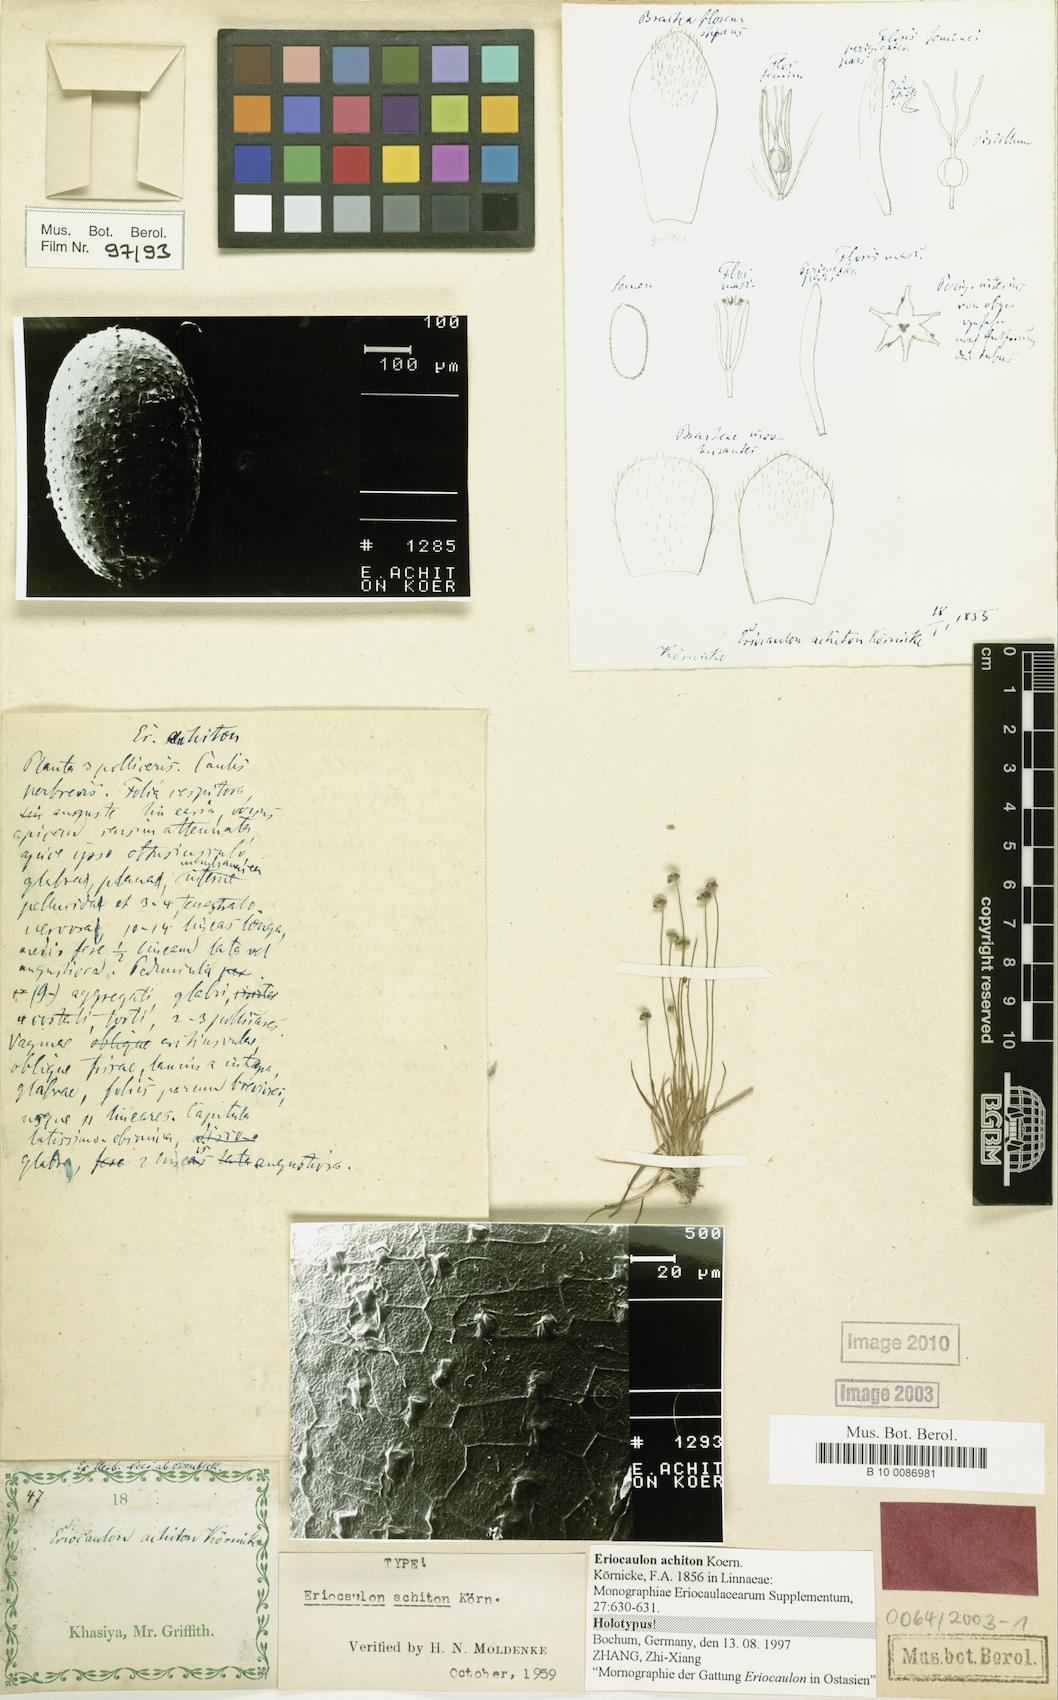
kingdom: Plantae
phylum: Tracheophyta
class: Liliopsida
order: Poales
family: Eriocaulaceae
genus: Eriocaulon
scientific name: Eriocaulon achiton
